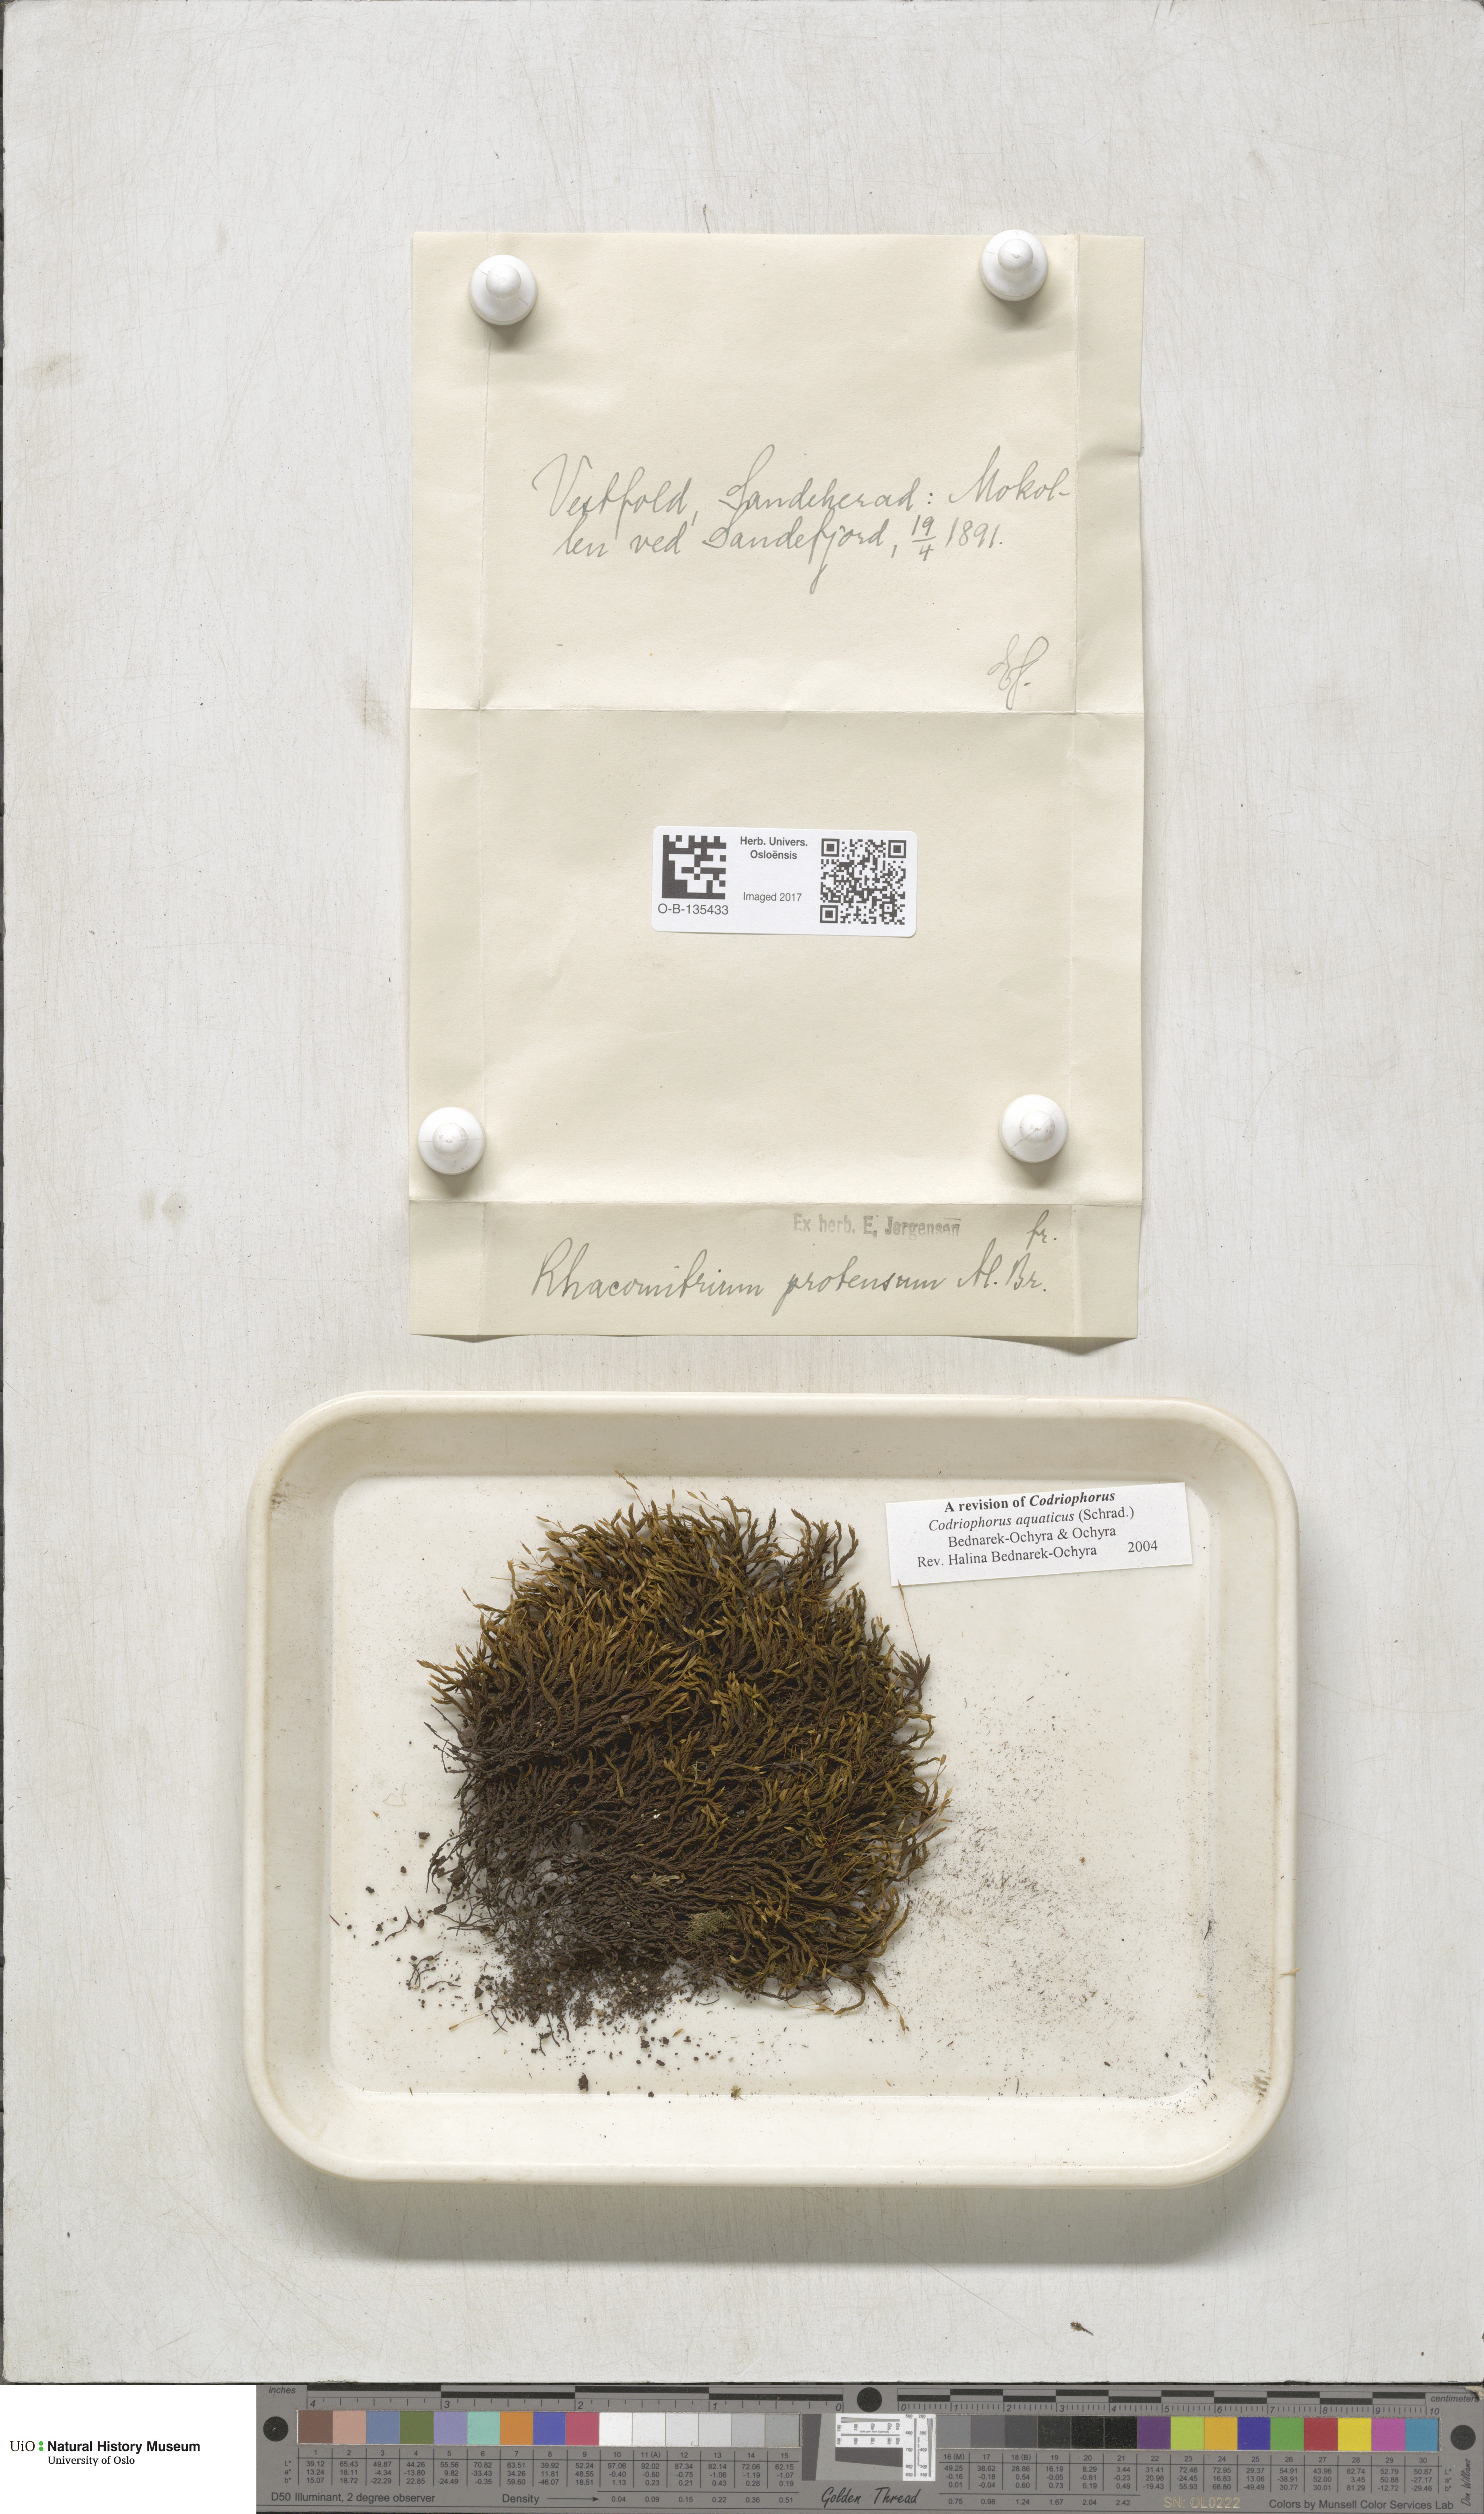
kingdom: Plantae
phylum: Bryophyta
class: Bryopsida
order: Grimmiales
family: Grimmiaceae
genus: Codriophorus
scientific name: Codriophorus aquaticus
